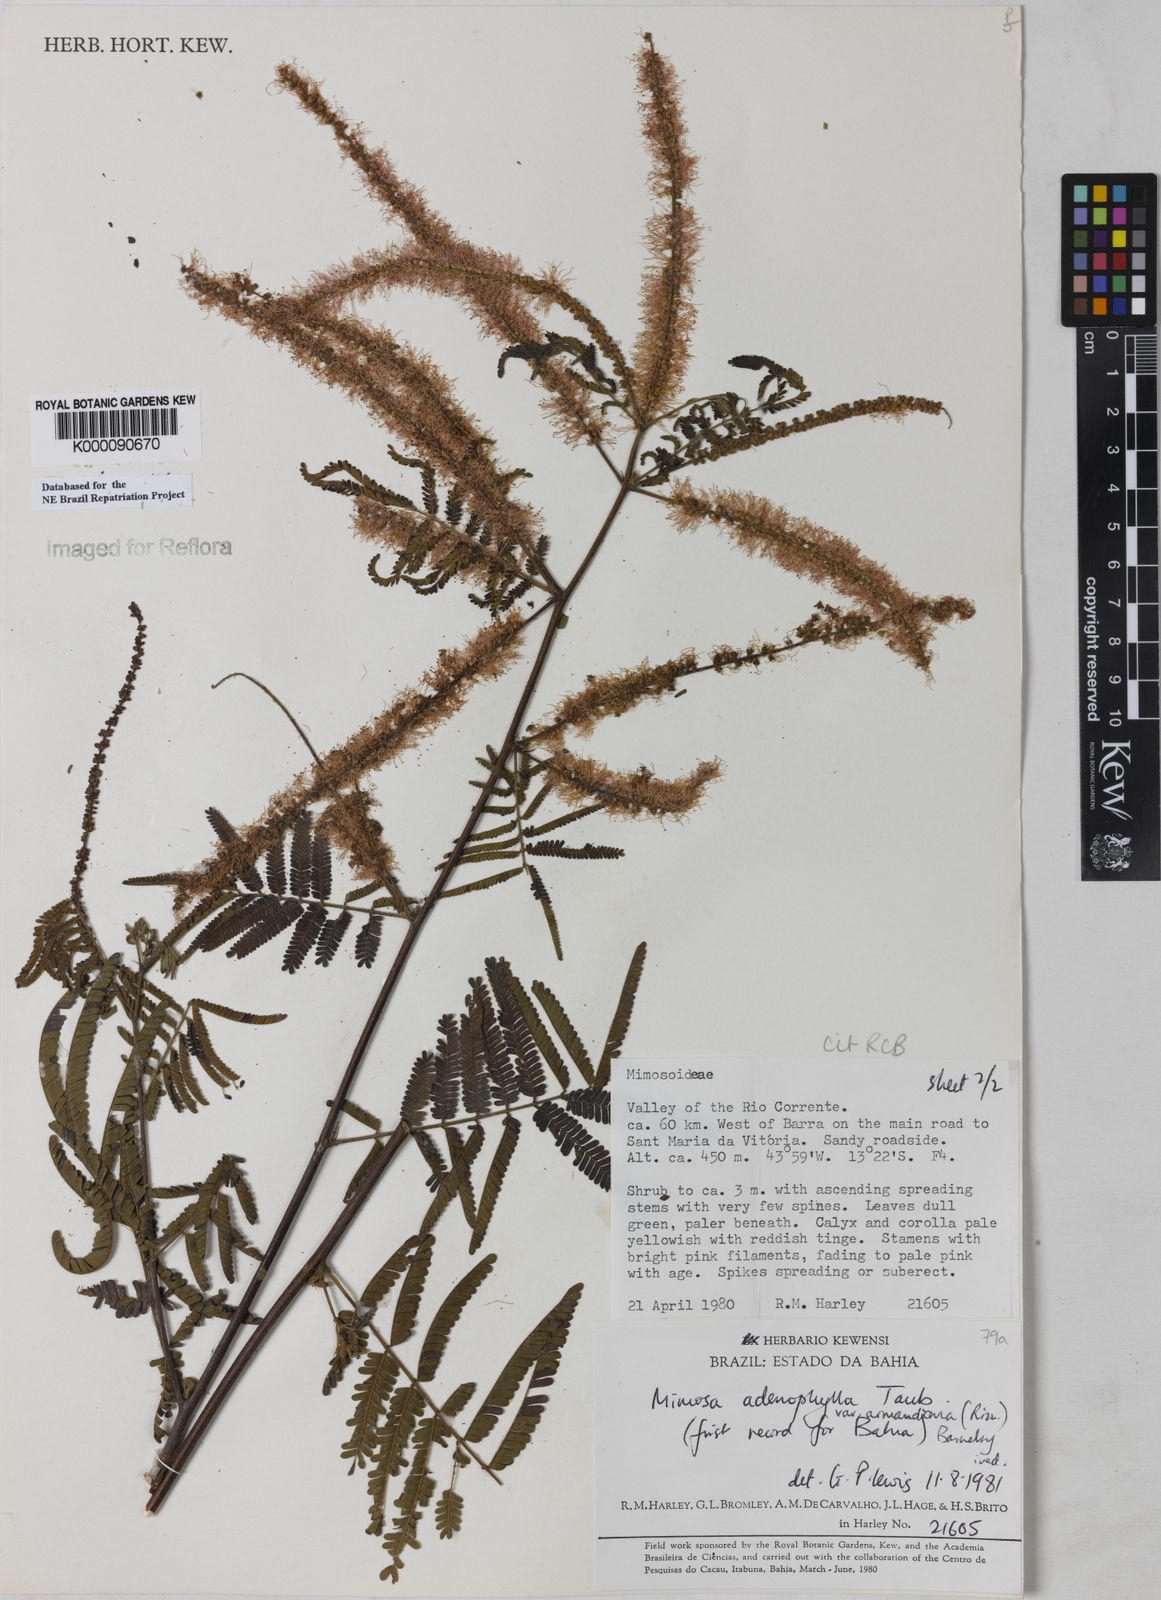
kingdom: Plantae
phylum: Tracheophyta
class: Magnoliopsida
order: Fabales
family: Fabaceae
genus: Mimosa
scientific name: Mimosa pteridifolia
